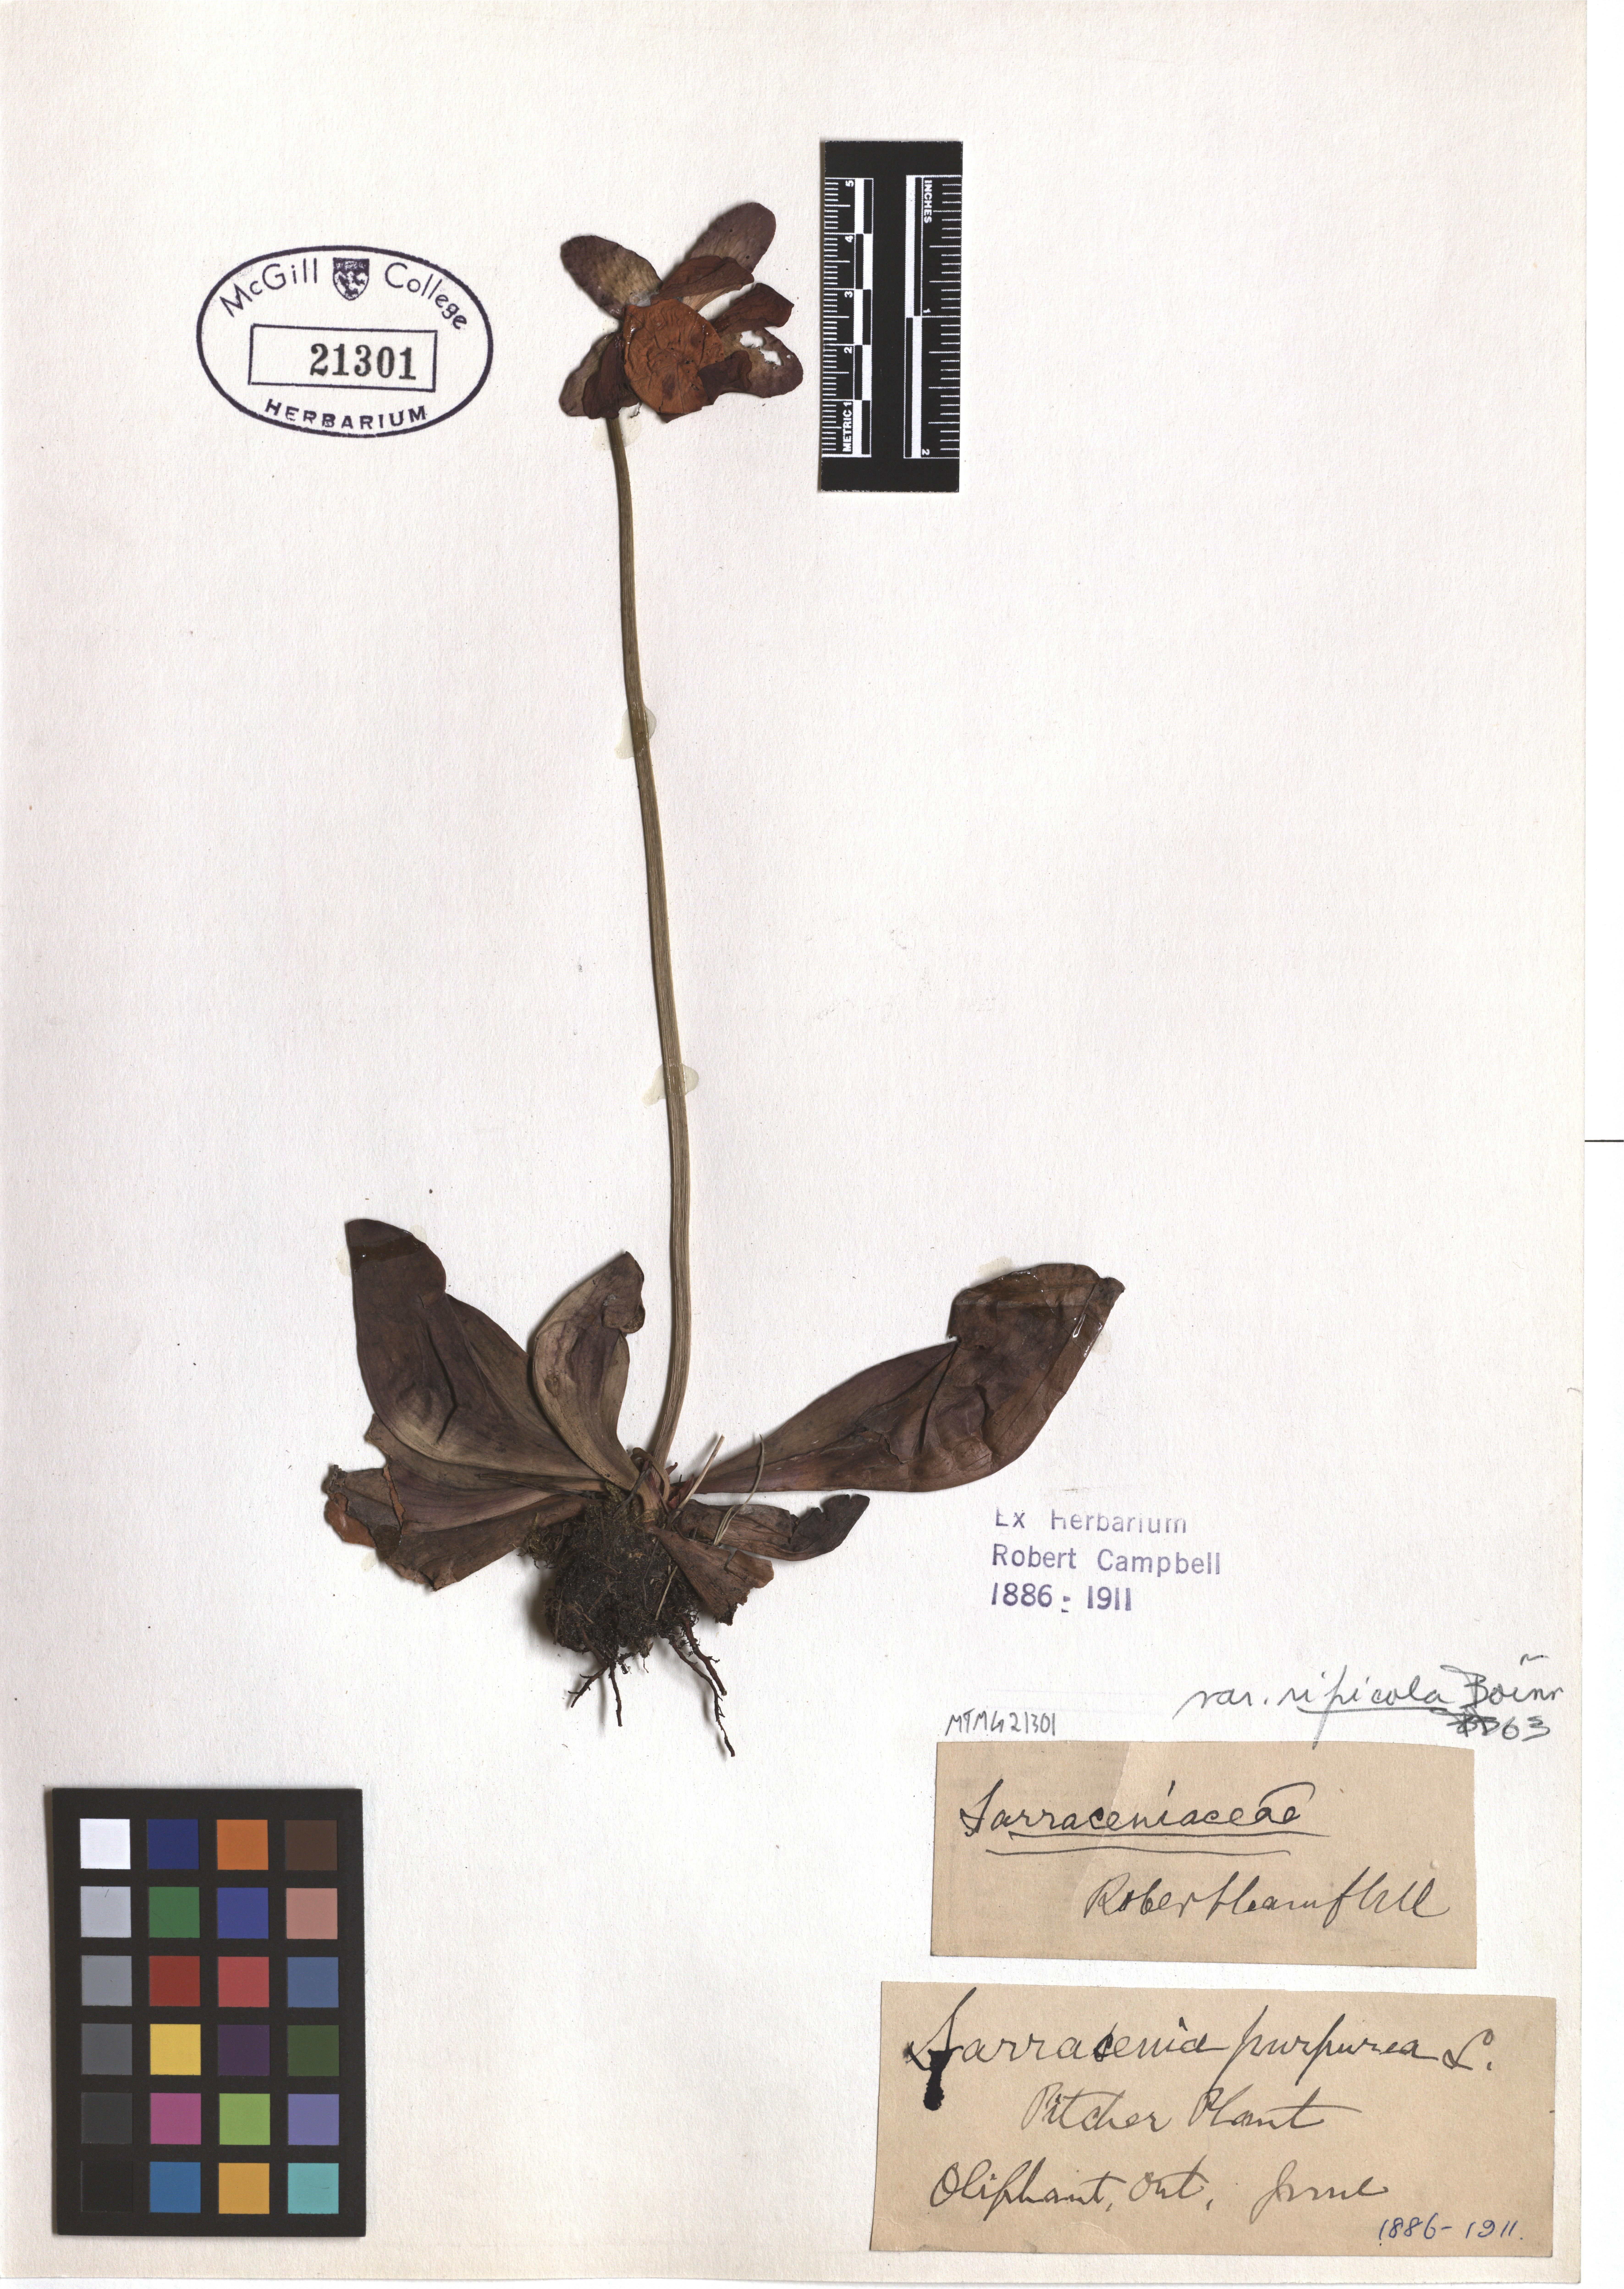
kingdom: Plantae
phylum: Tracheophyta
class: Magnoliopsida
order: Ericales
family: Sarraceniaceae
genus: Sarracenia
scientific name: Sarracenia purpurea
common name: Pitcherplant
